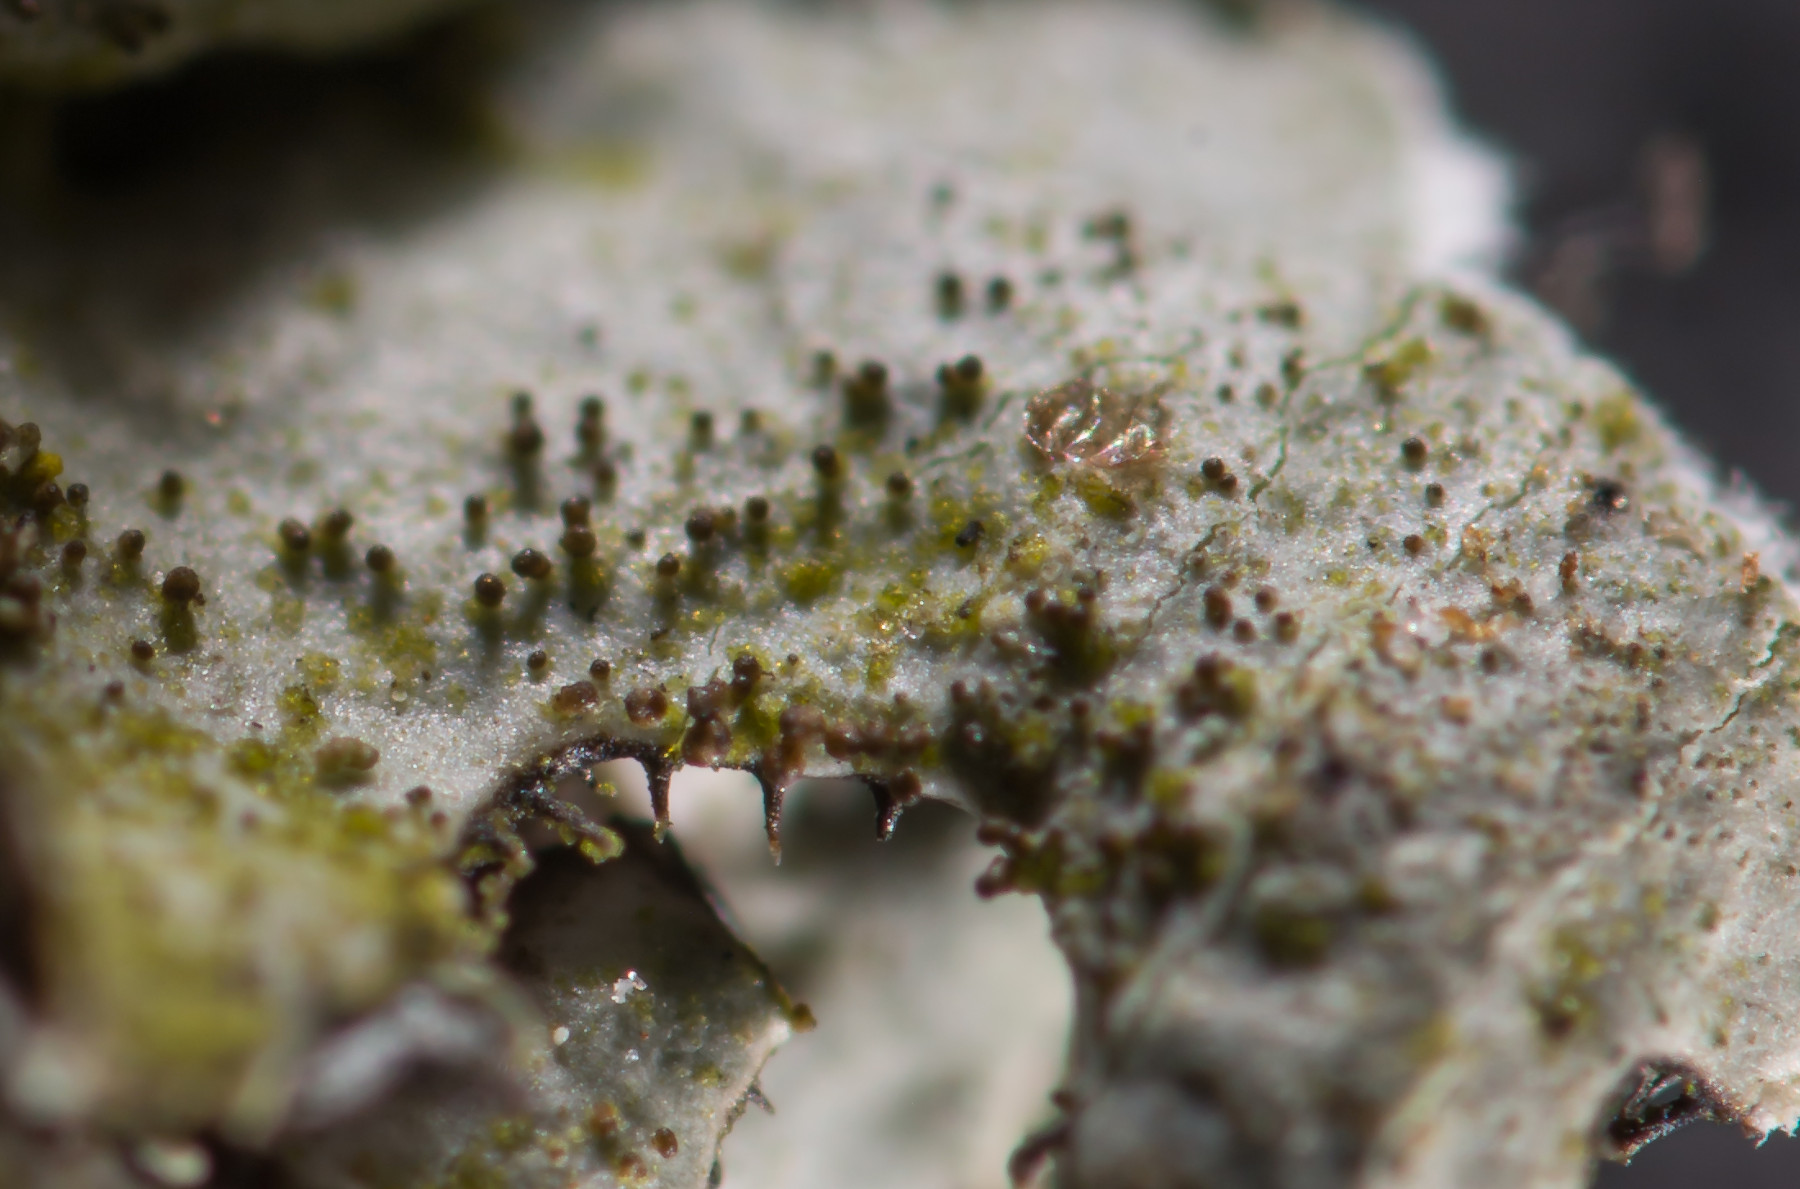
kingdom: Fungi
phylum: Ascomycota
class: Lecanoromycetes
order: Lecanorales
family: Parmeliaceae
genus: Parmelina
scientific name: Parmelina tiliacea
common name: sølvgrå skållav
